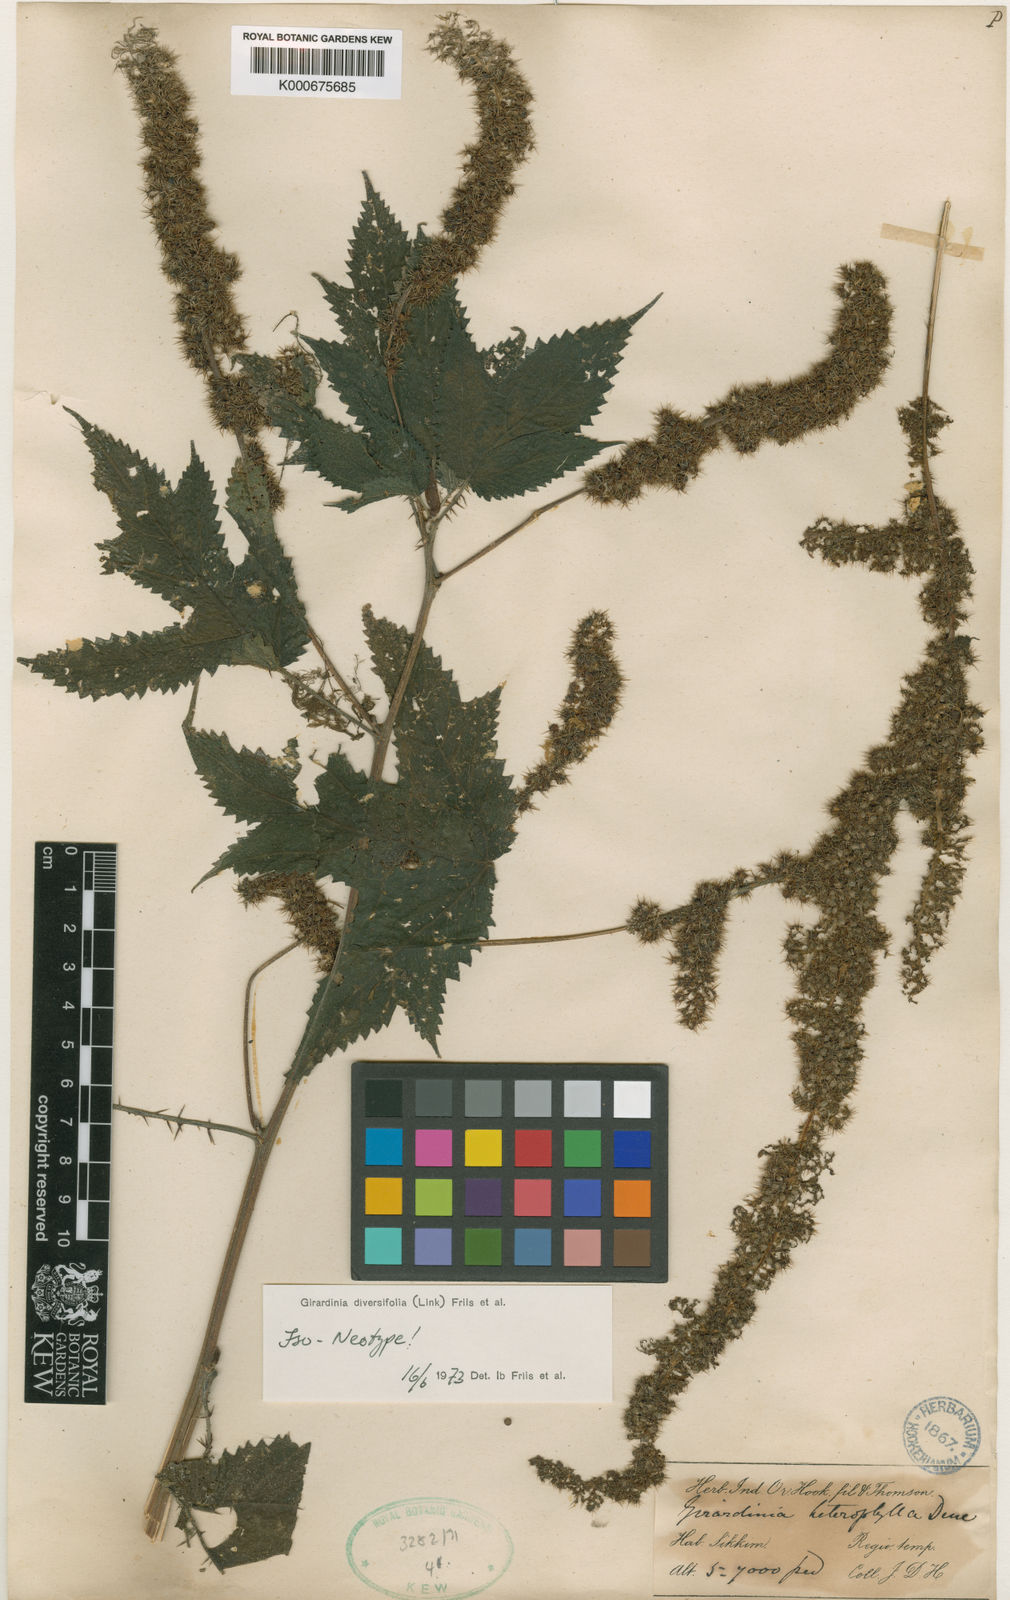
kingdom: Plantae
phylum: Tracheophyta
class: Magnoliopsida
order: Rosales
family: Urticaceae
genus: Girardinia
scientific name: Girardinia diversifolia
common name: Himalayan-nettle
